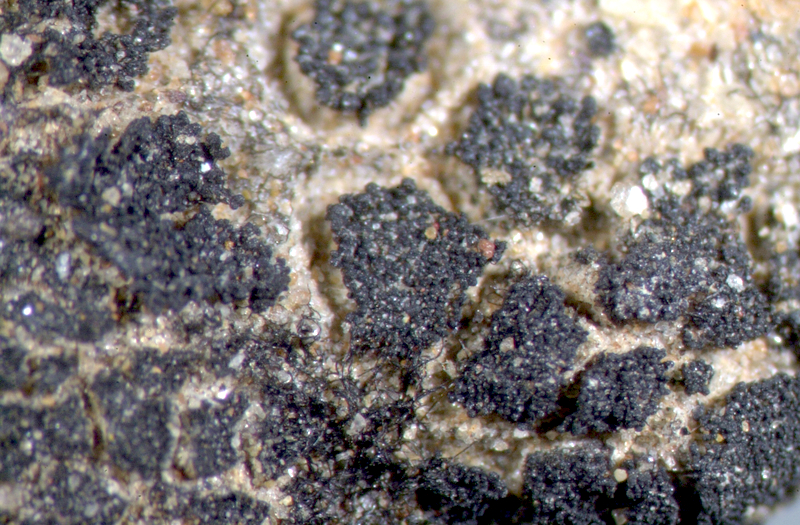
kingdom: Fungi
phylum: Ascomycota
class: Lecanoromycetes
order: Peltigerales
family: Collemataceae
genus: Enchylium
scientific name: Enchylium coccophorum
